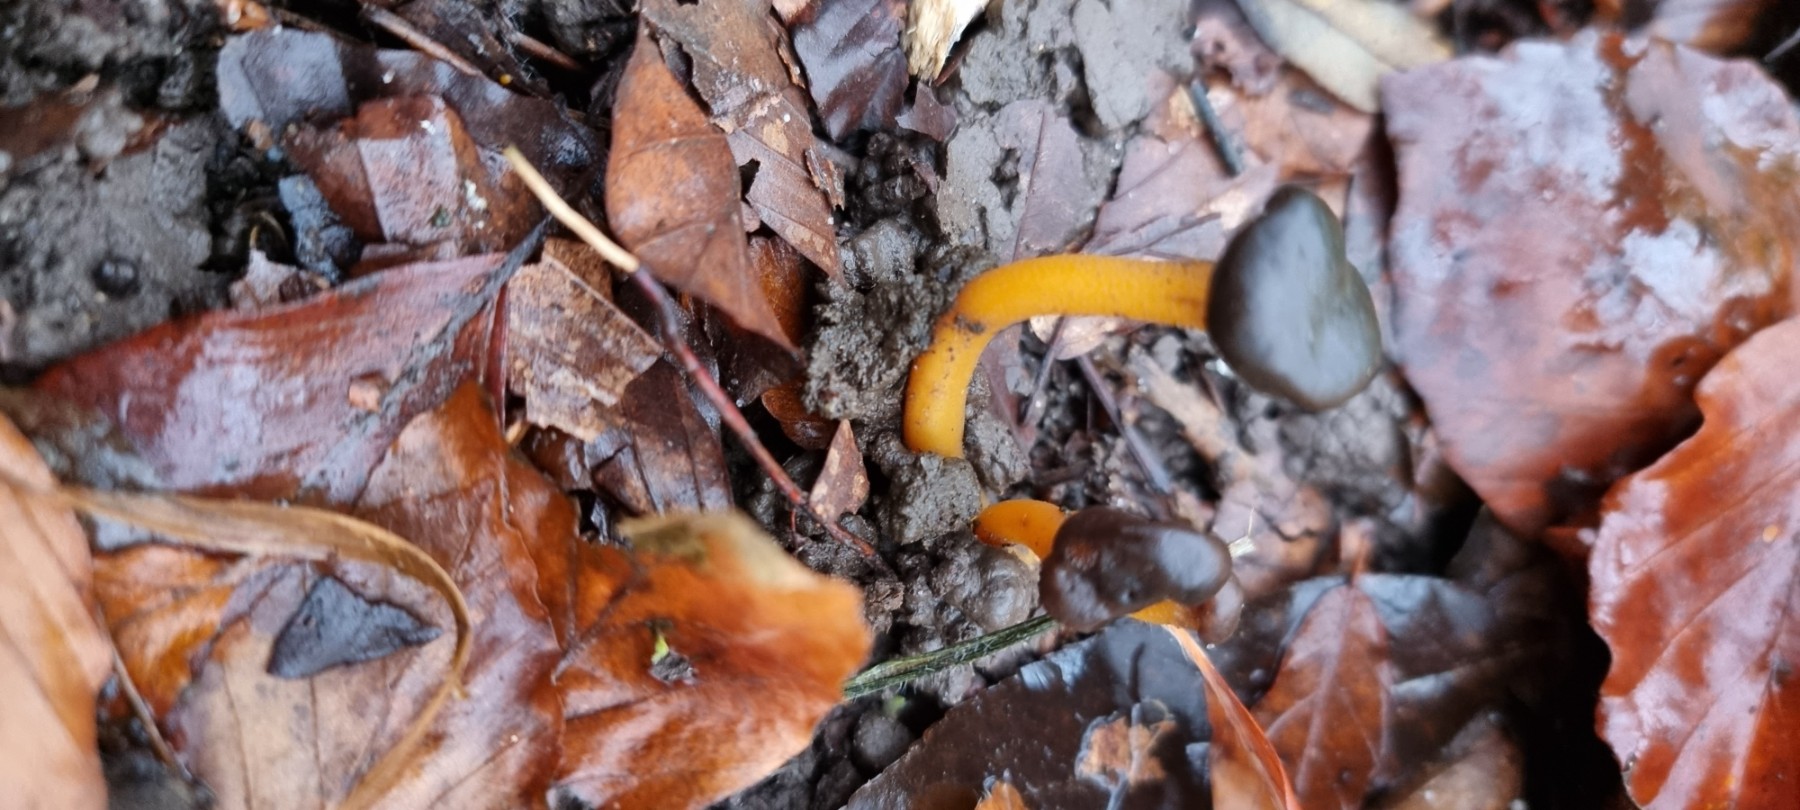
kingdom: Fungi
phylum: Ascomycota
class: Leotiomycetes
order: Leotiales
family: Leotiaceae
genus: Leotia
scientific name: Leotia lubrica
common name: ravsvamp
